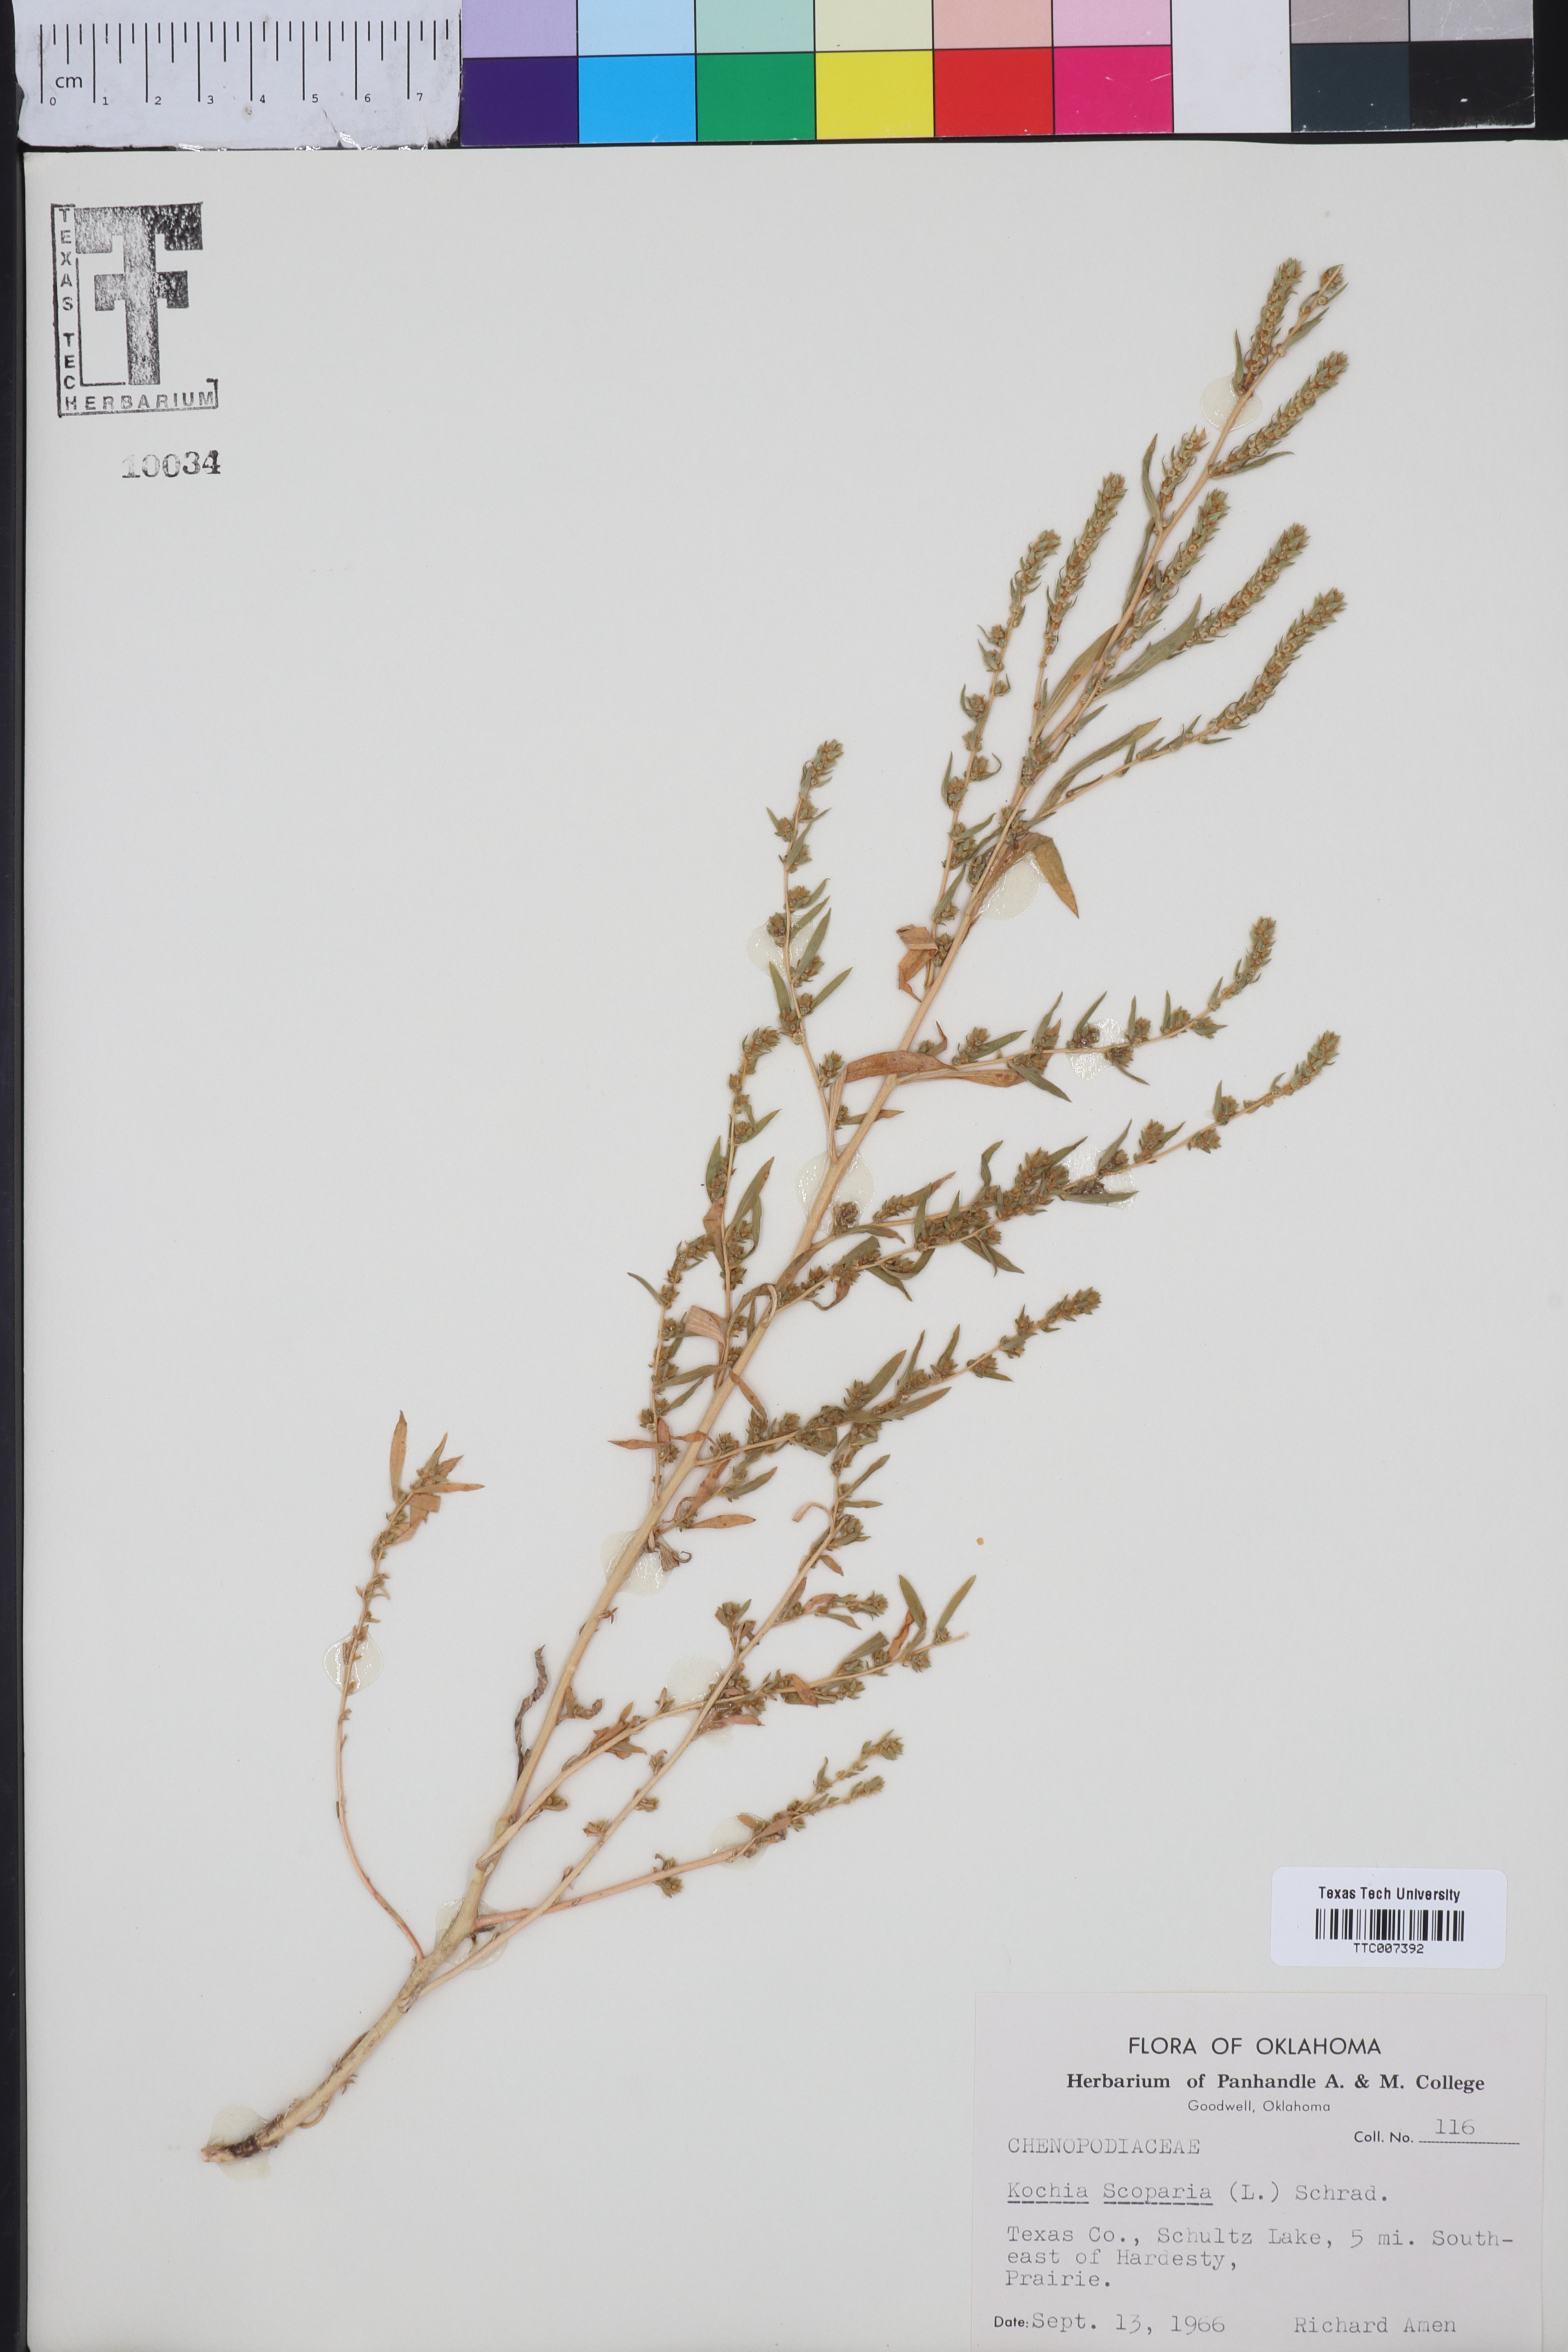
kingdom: Plantae
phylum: Tracheophyta
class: Magnoliopsida
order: Caryophyllales
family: Amaranthaceae
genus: Bassia
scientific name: Bassia scoparia
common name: Belvedere
